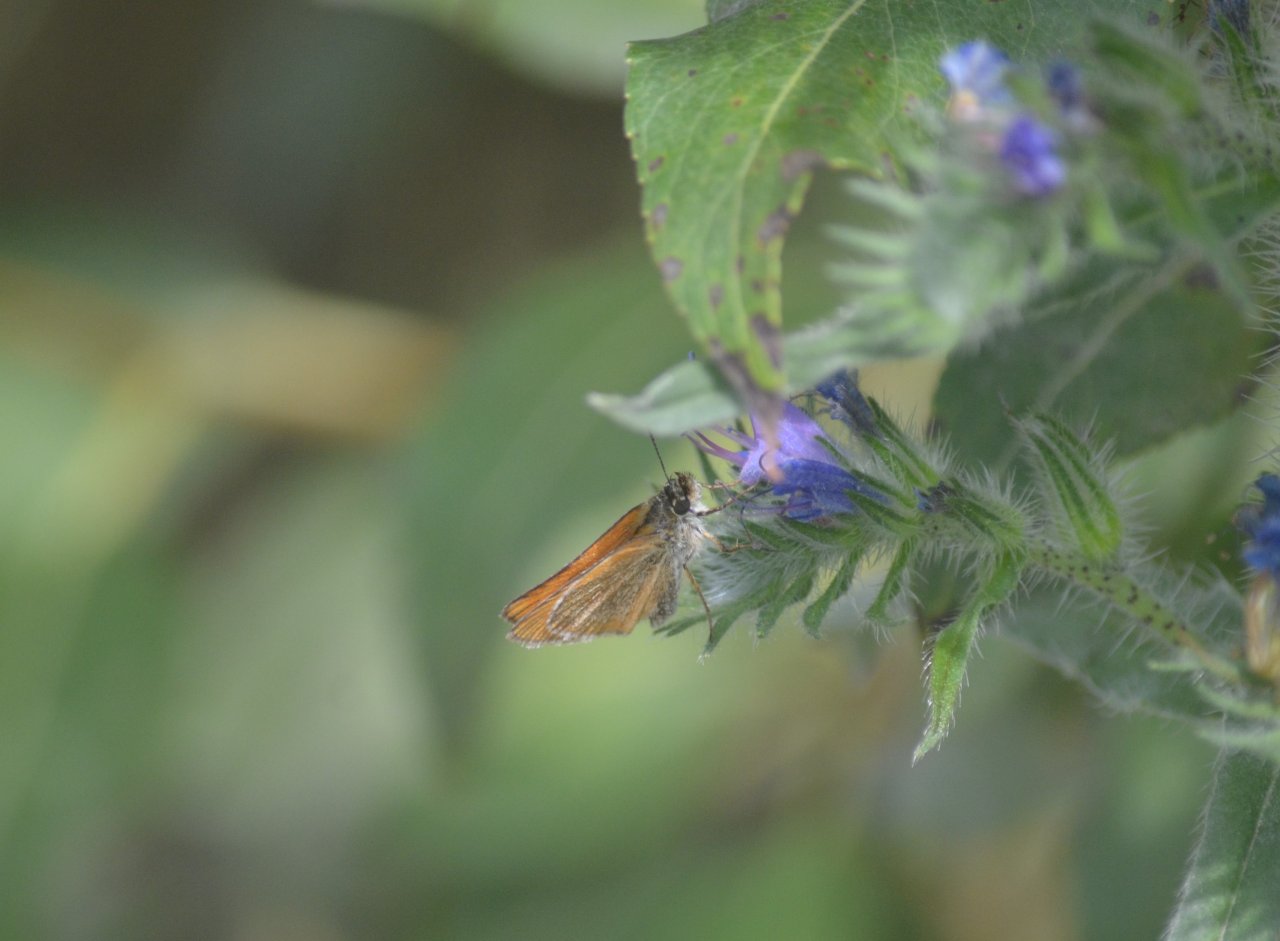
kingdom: Animalia
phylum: Arthropoda
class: Insecta
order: Lepidoptera
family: Hesperiidae
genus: Thymelicus
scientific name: Thymelicus lineola
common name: European Skipper
